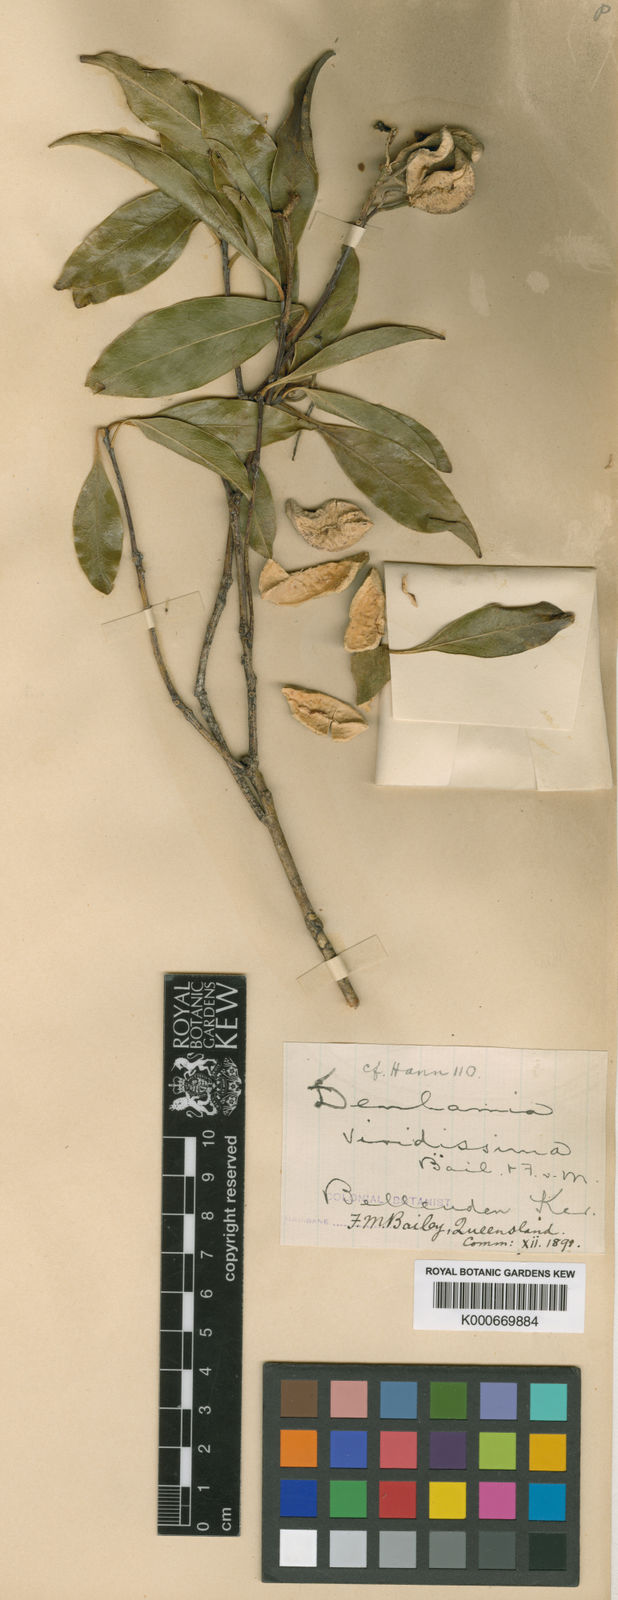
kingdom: Plantae
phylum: Tracheophyta
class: Magnoliopsida
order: Celastrales
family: Celastraceae
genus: Denhamia
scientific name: Denhamia viridissima
